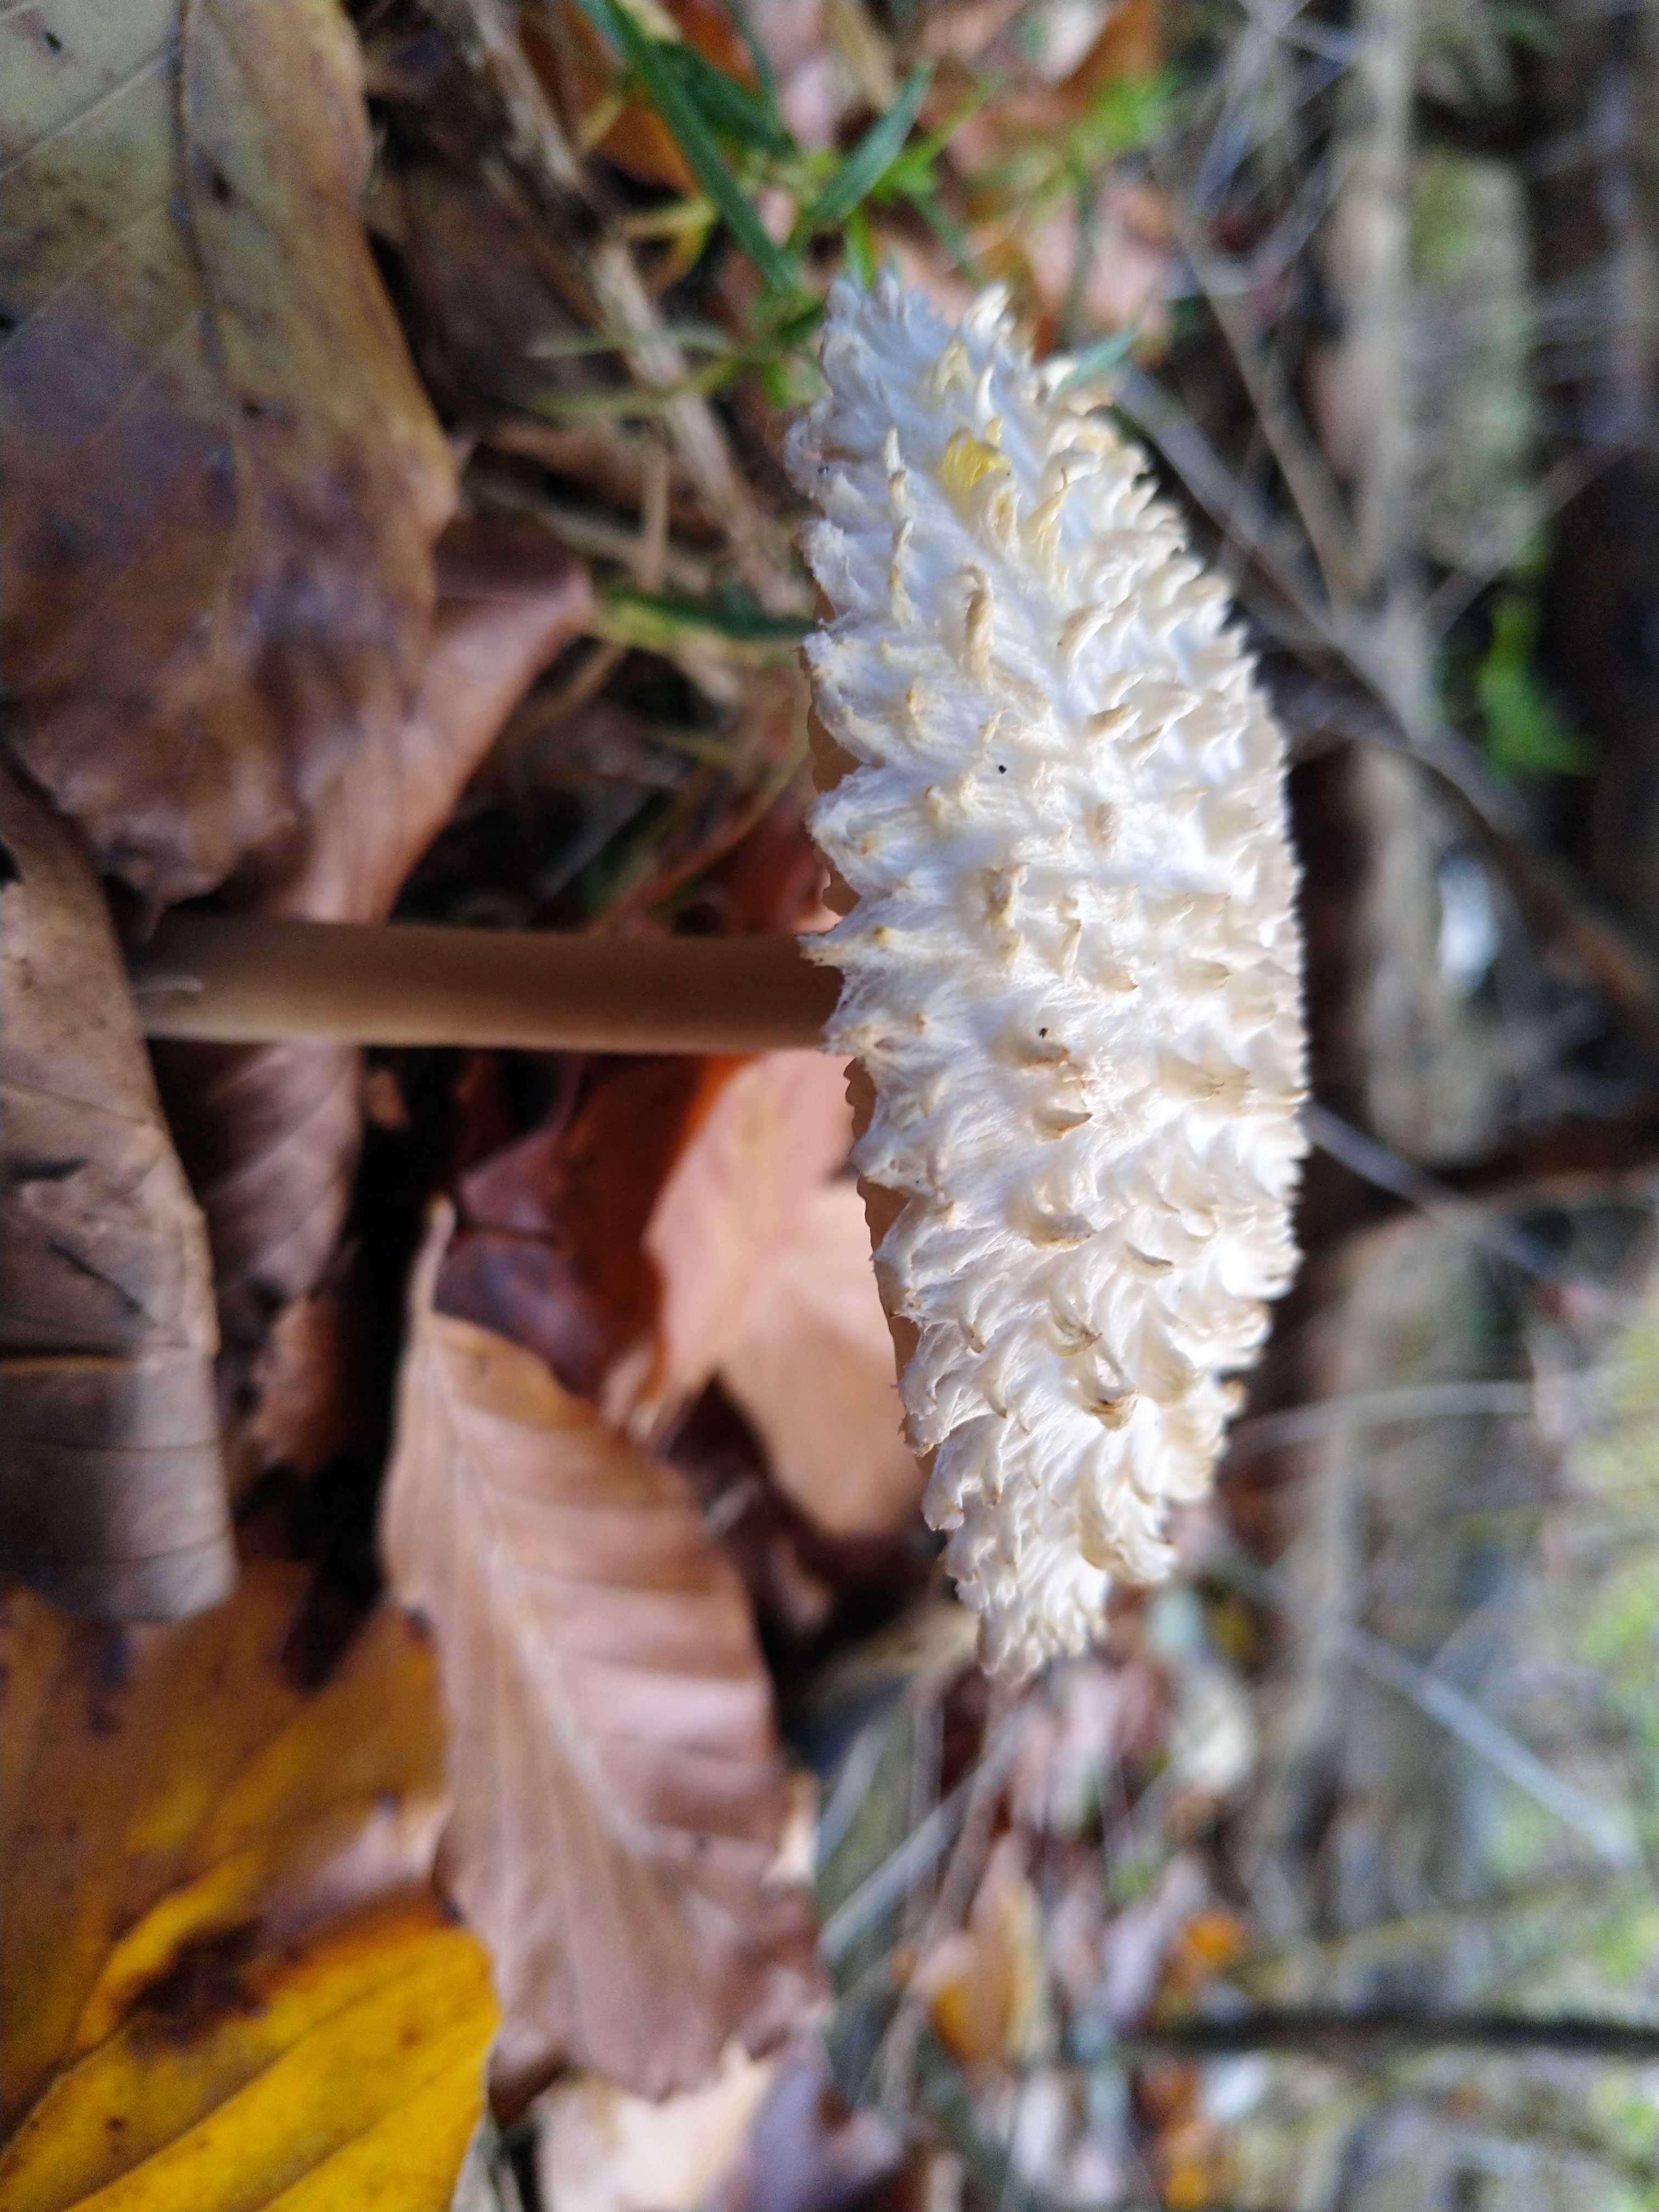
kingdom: Fungi
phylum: Basidiomycota
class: Agaricomycetes
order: Agaricales
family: Agaricaceae
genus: Leucoagaricus
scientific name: Leucoagaricus nympharum
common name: gran-silkehat
